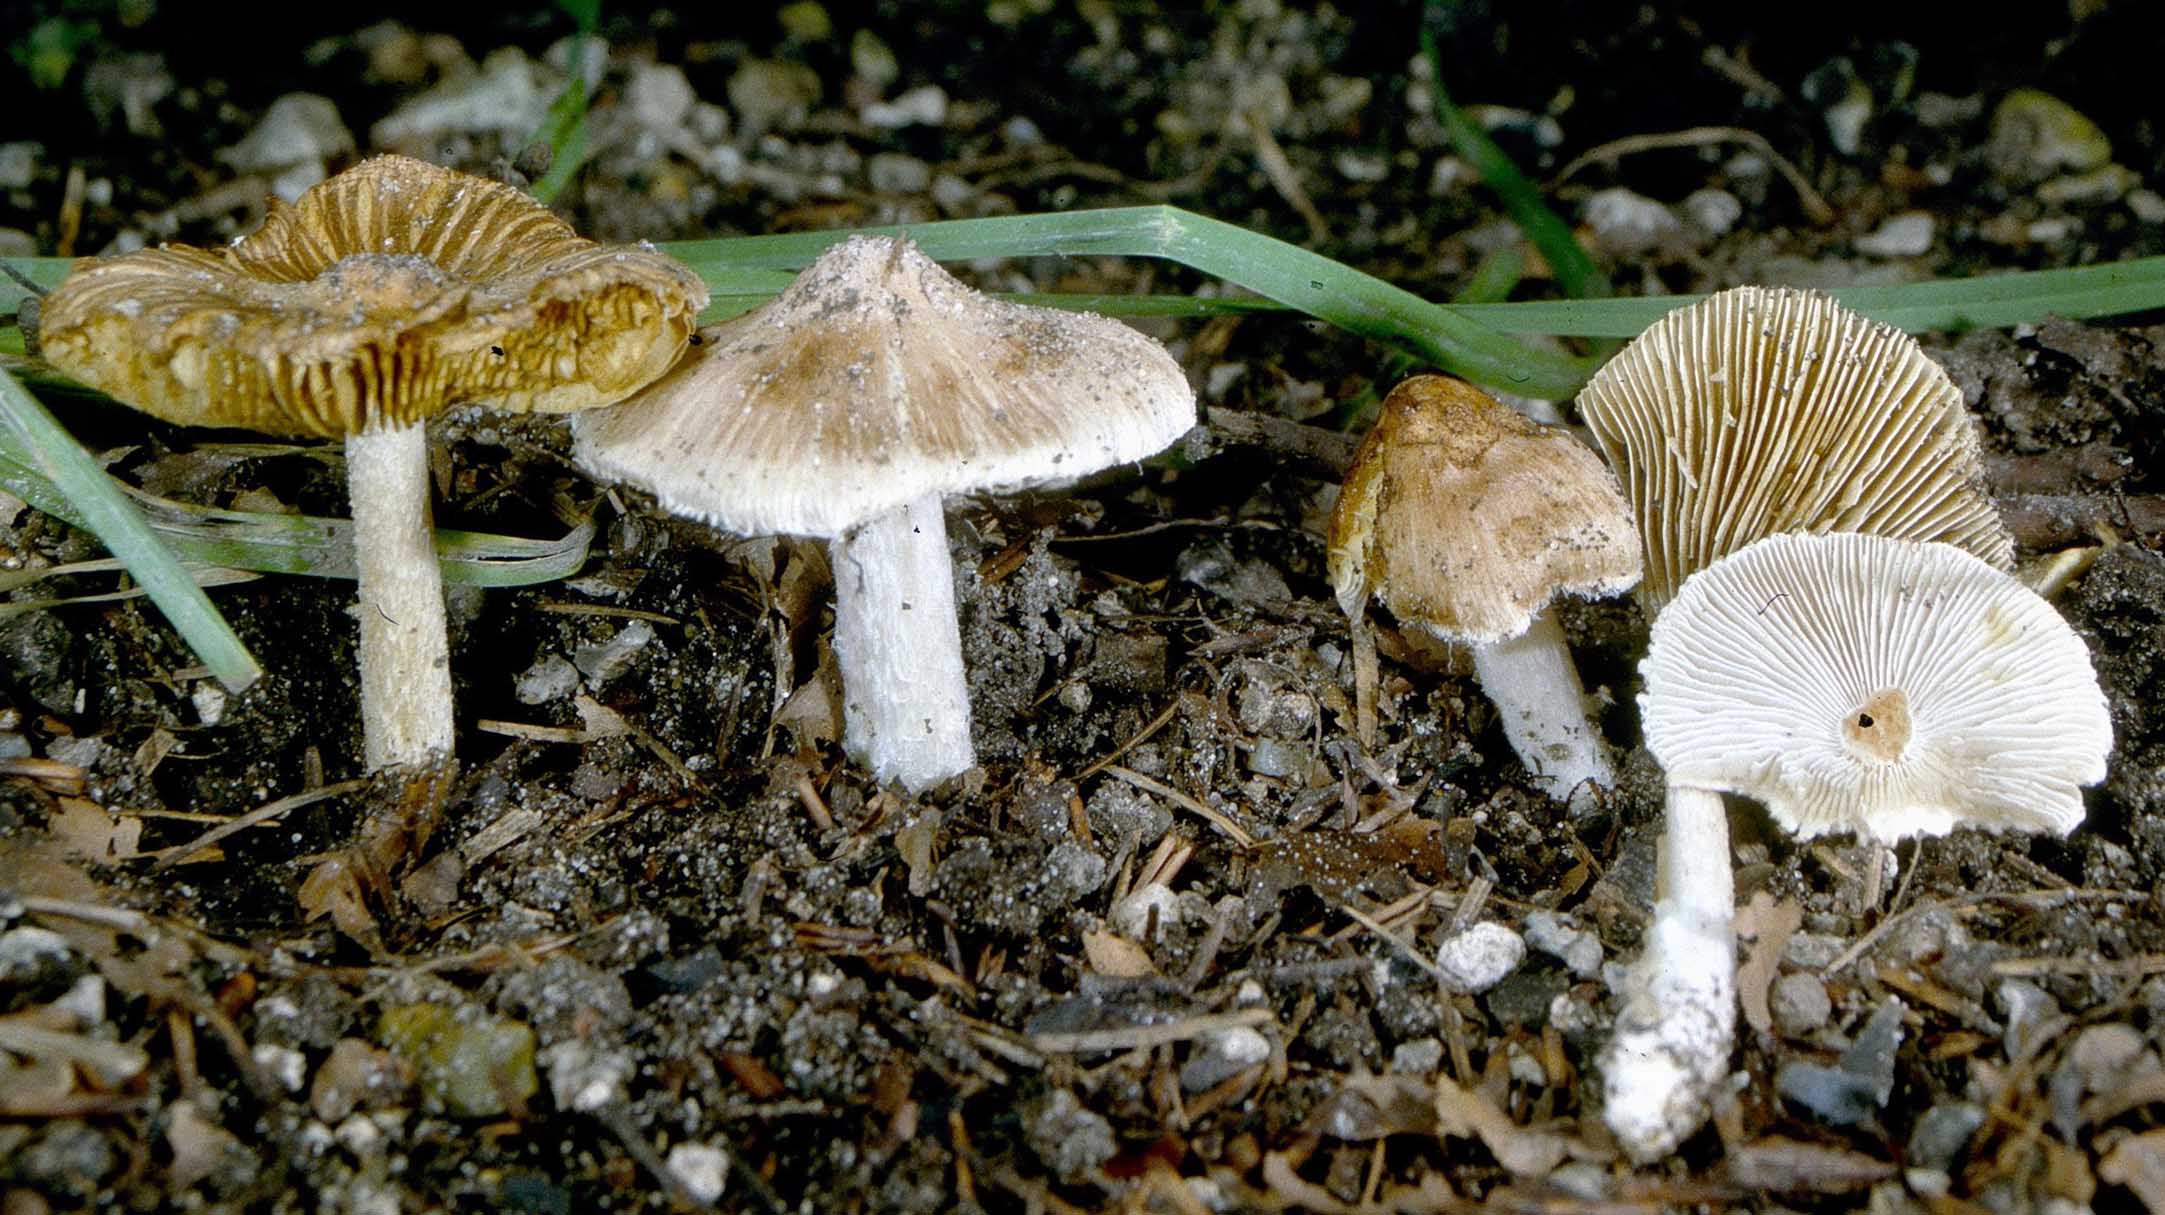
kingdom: Fungi
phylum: Basidiomycota
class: Agaricomycetes
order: Agaricales
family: Inocybaceae
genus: Pseudosperma
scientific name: Pseudosperma rimosum
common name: gulbladet trævlhat
